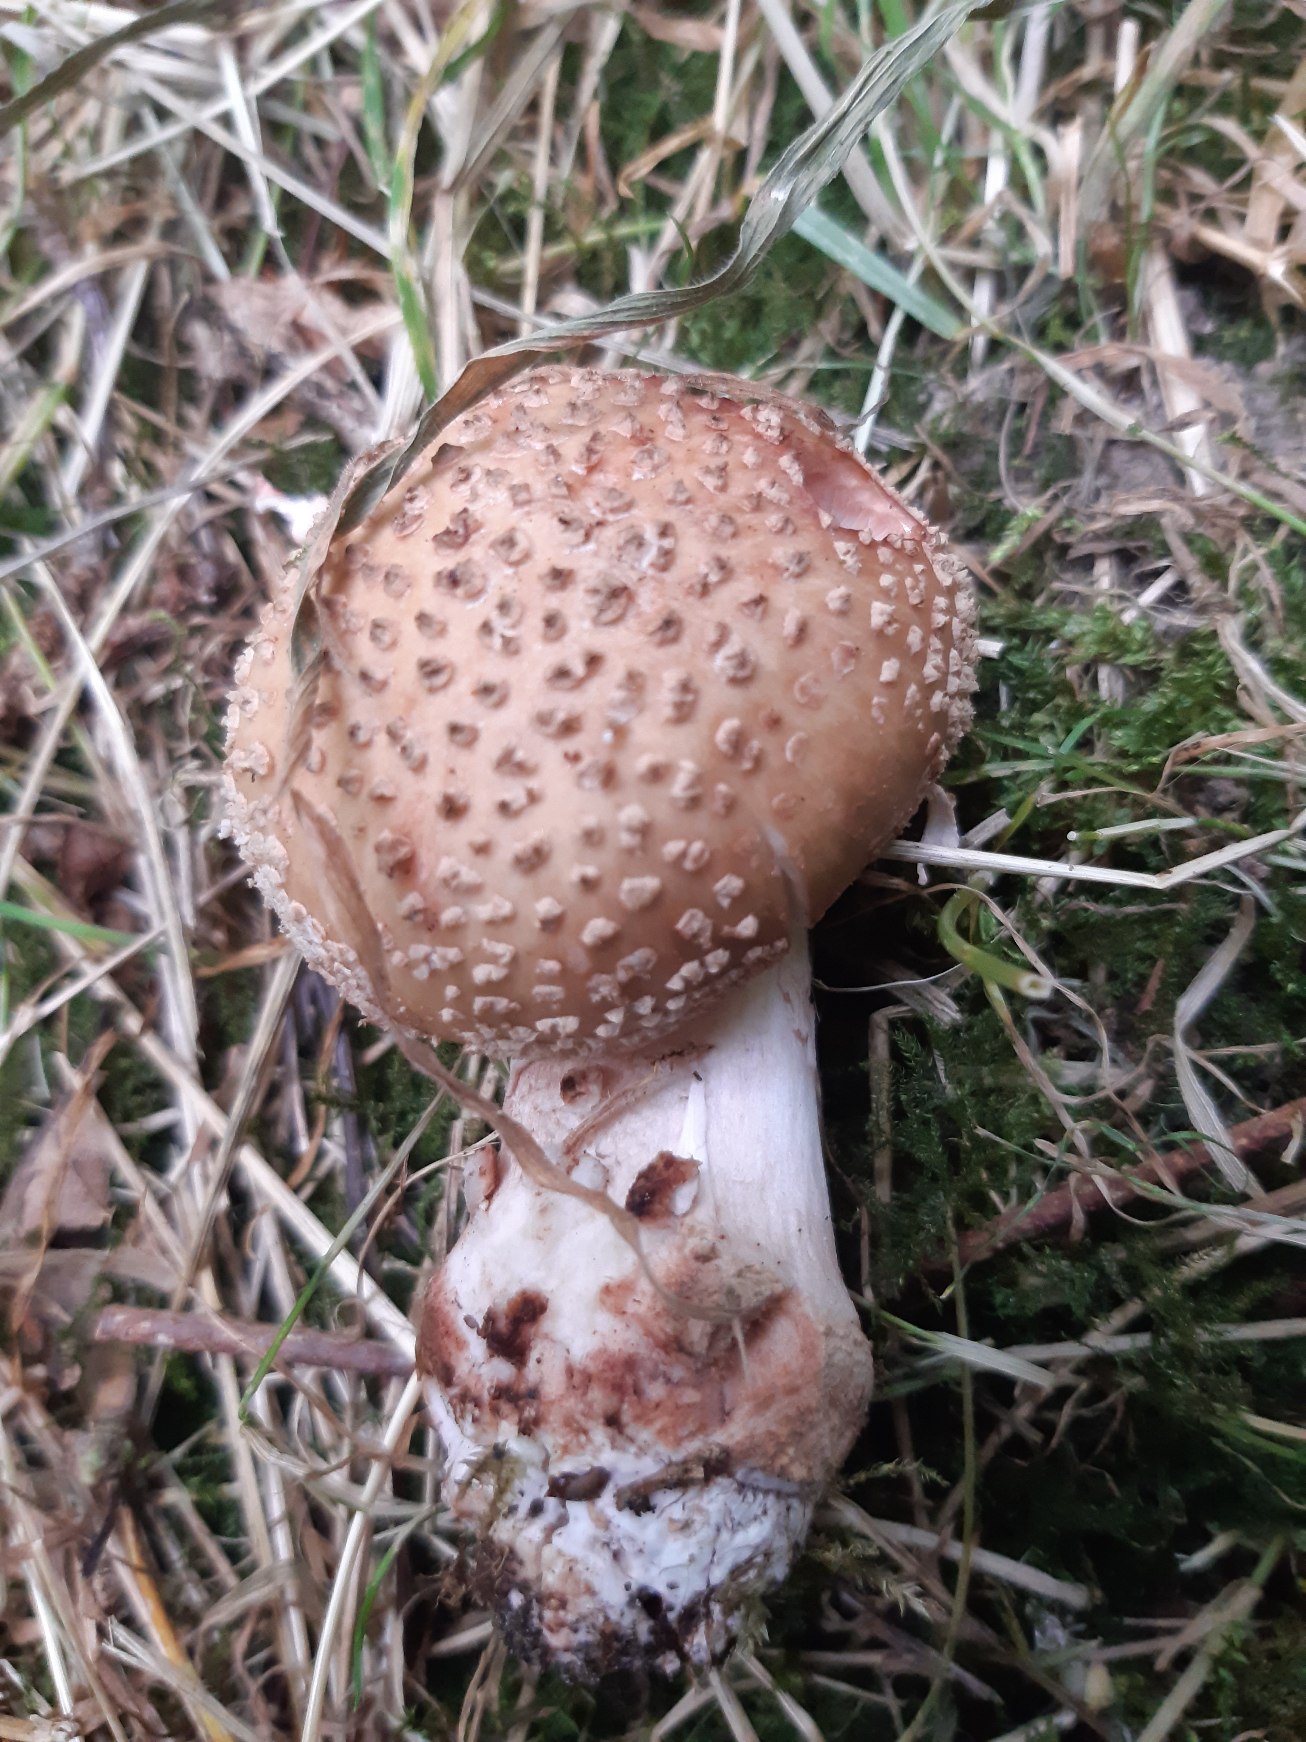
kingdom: Fungi
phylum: Basidiomycota
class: Agaricomycetes
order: Agaricales
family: Amanitaceae
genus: Amanita
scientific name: Amanita rubescens
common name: Rødmende fluesvamp
